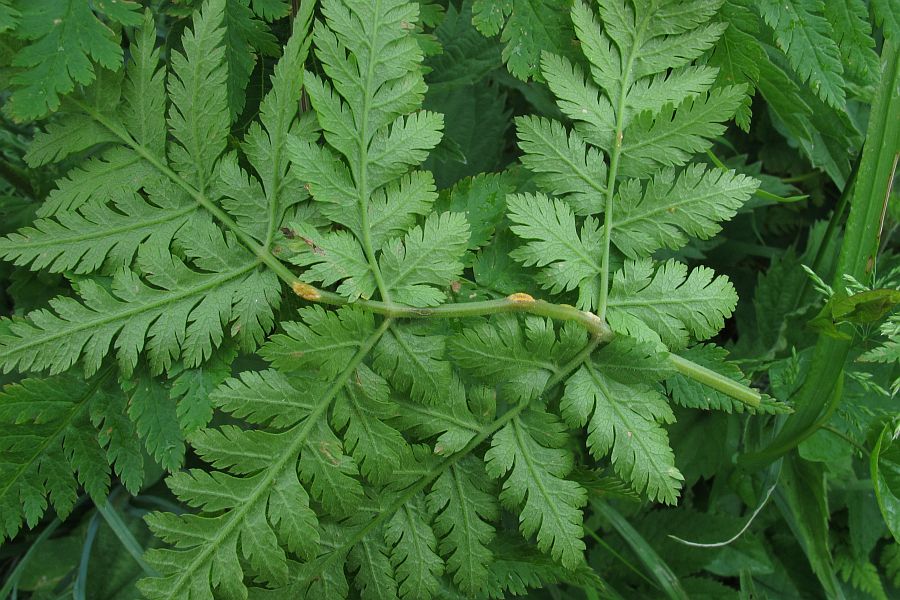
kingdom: Fungi
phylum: Basidiomycota
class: Pucciniomycetes
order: Pucciniales
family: Pucciniaceae
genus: Puccinia
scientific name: Puccinia chaerophylli
